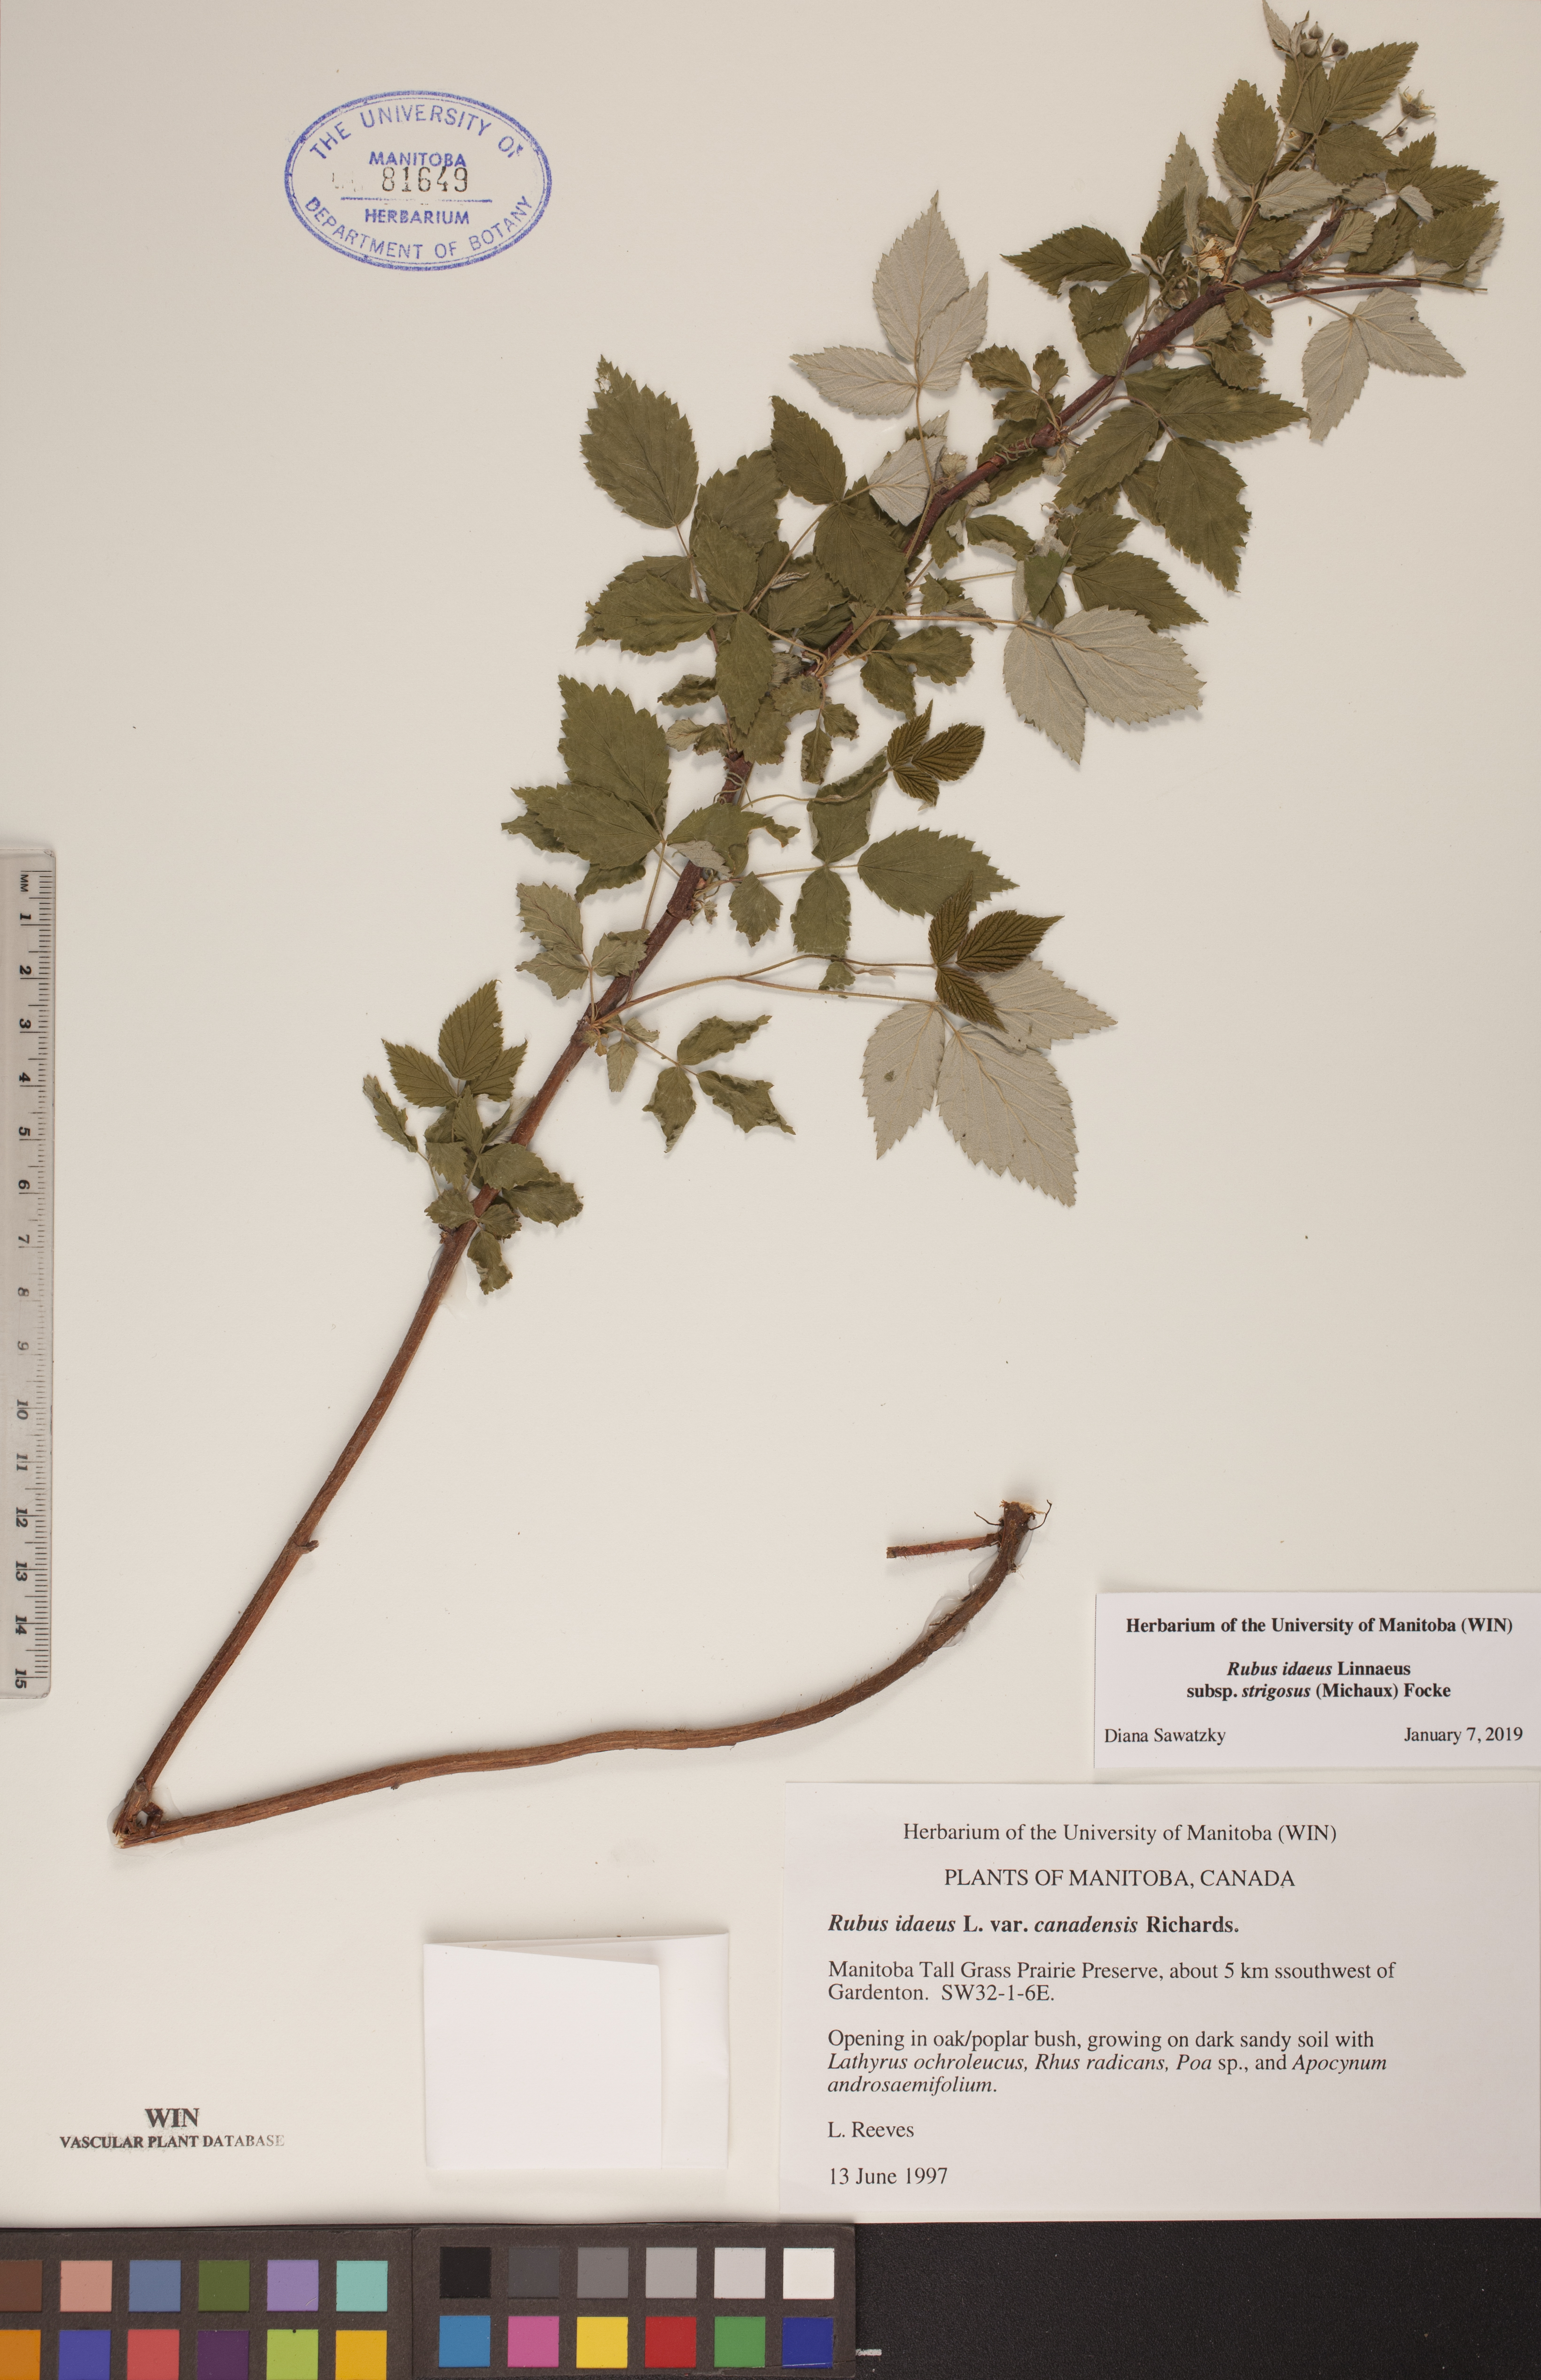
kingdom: Plantae
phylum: Tracheophyta
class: Magnoliopsida
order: Rosales
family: Rosaceae
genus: Rubus
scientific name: Rubus idaeus
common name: Raspberry
